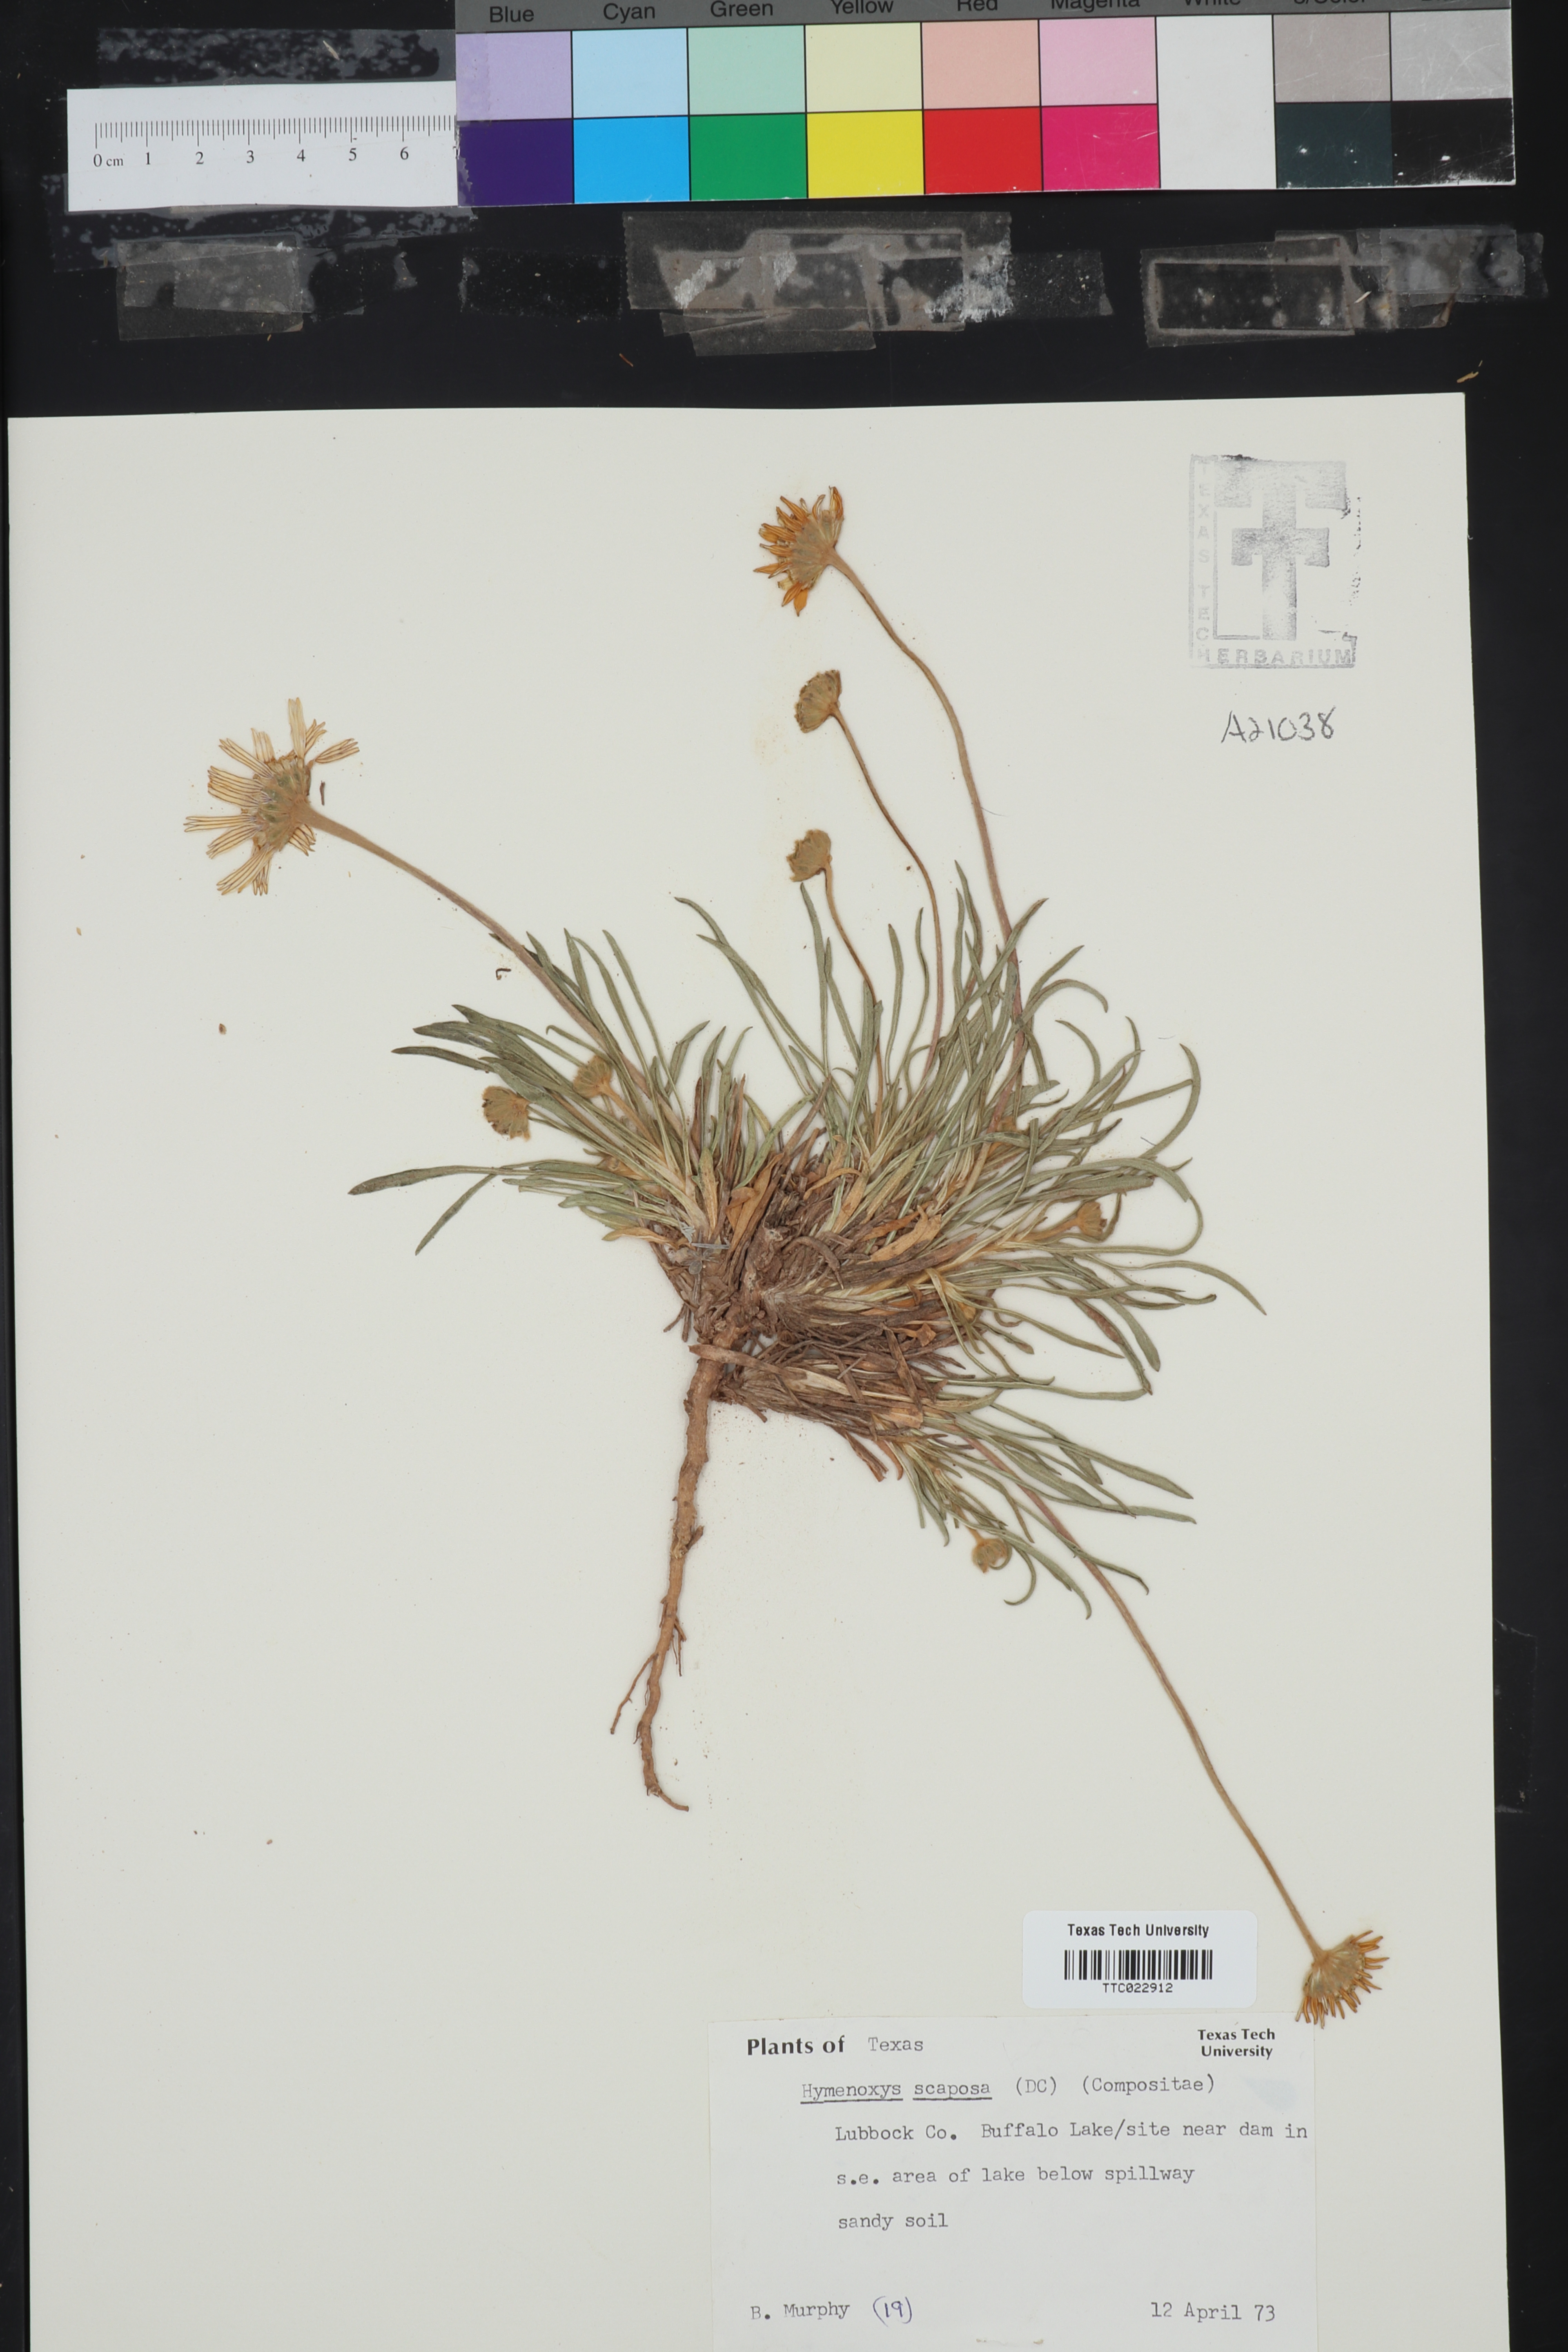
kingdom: Plantae
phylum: Tracheophyta
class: Magnoliopsida
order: Asterales
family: Asteraceae
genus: Tetraneuris
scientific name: Tetraneuris scaposa
